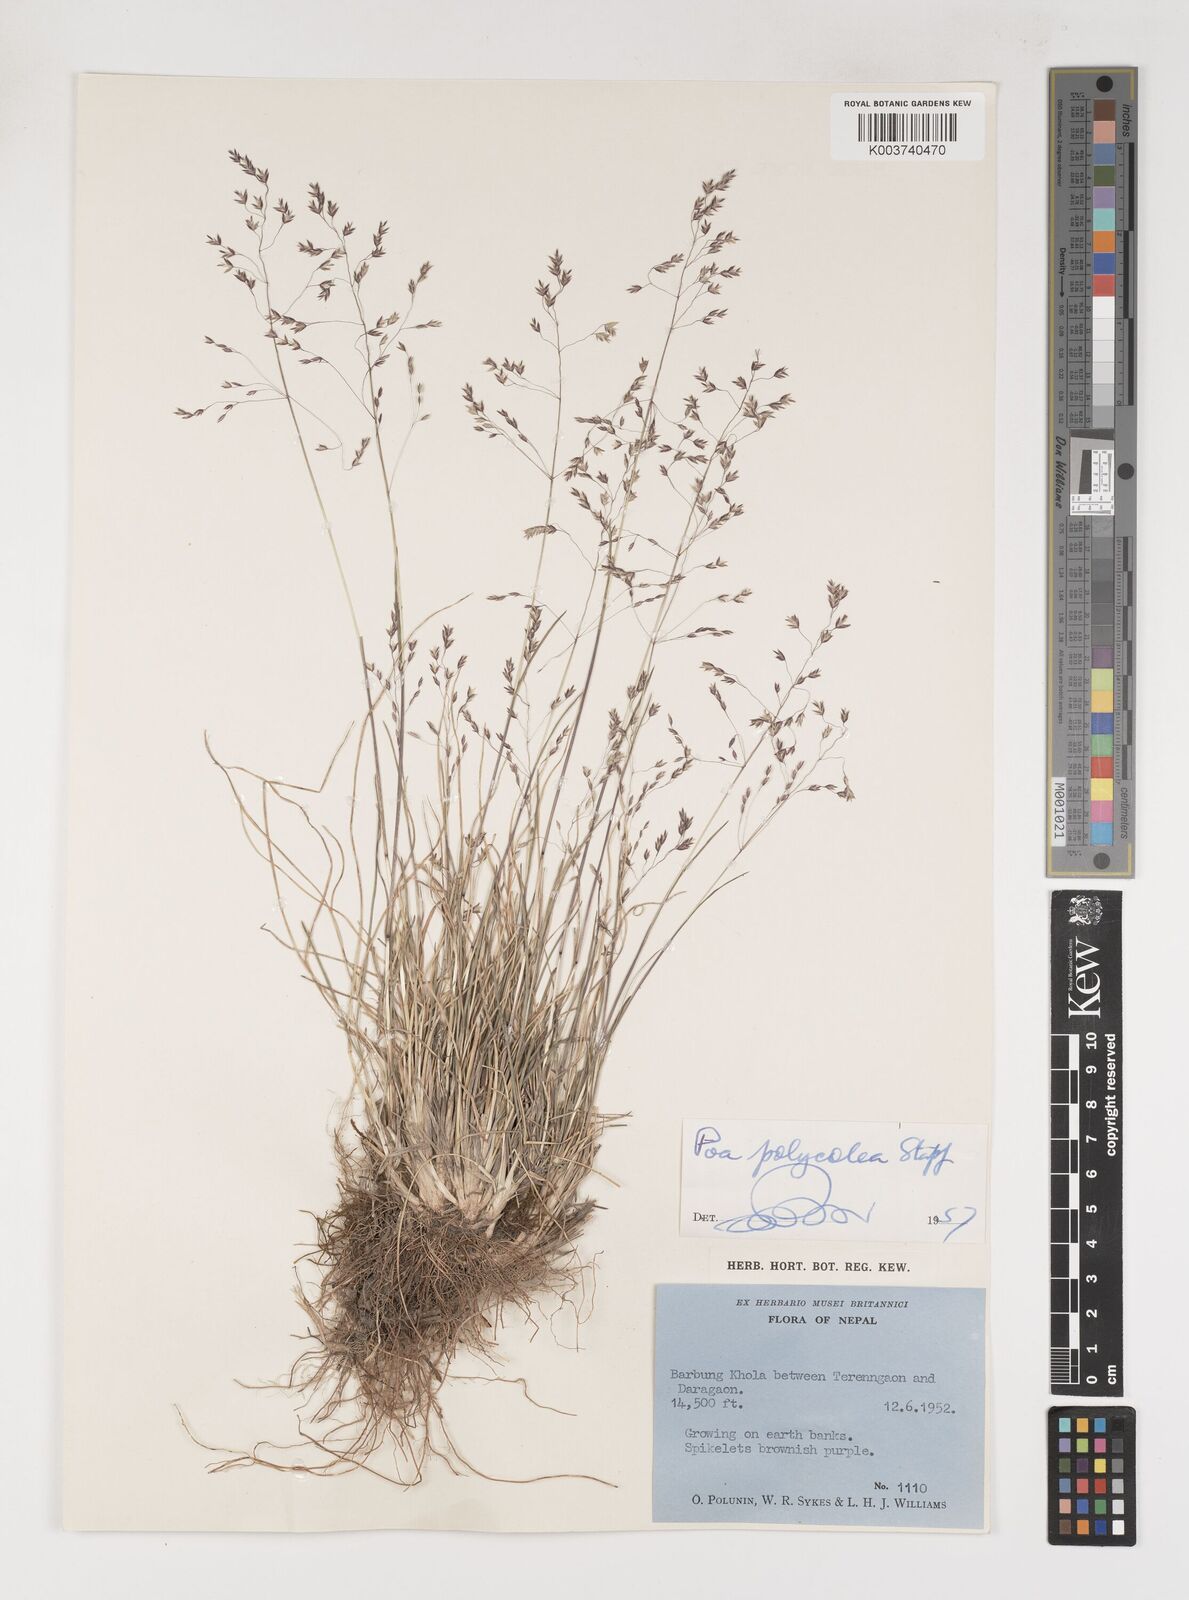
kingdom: Plantae
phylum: Tracheophyta
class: Liliopsida
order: Poales
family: Poaceae
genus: Poa
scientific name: Poa polycolea
